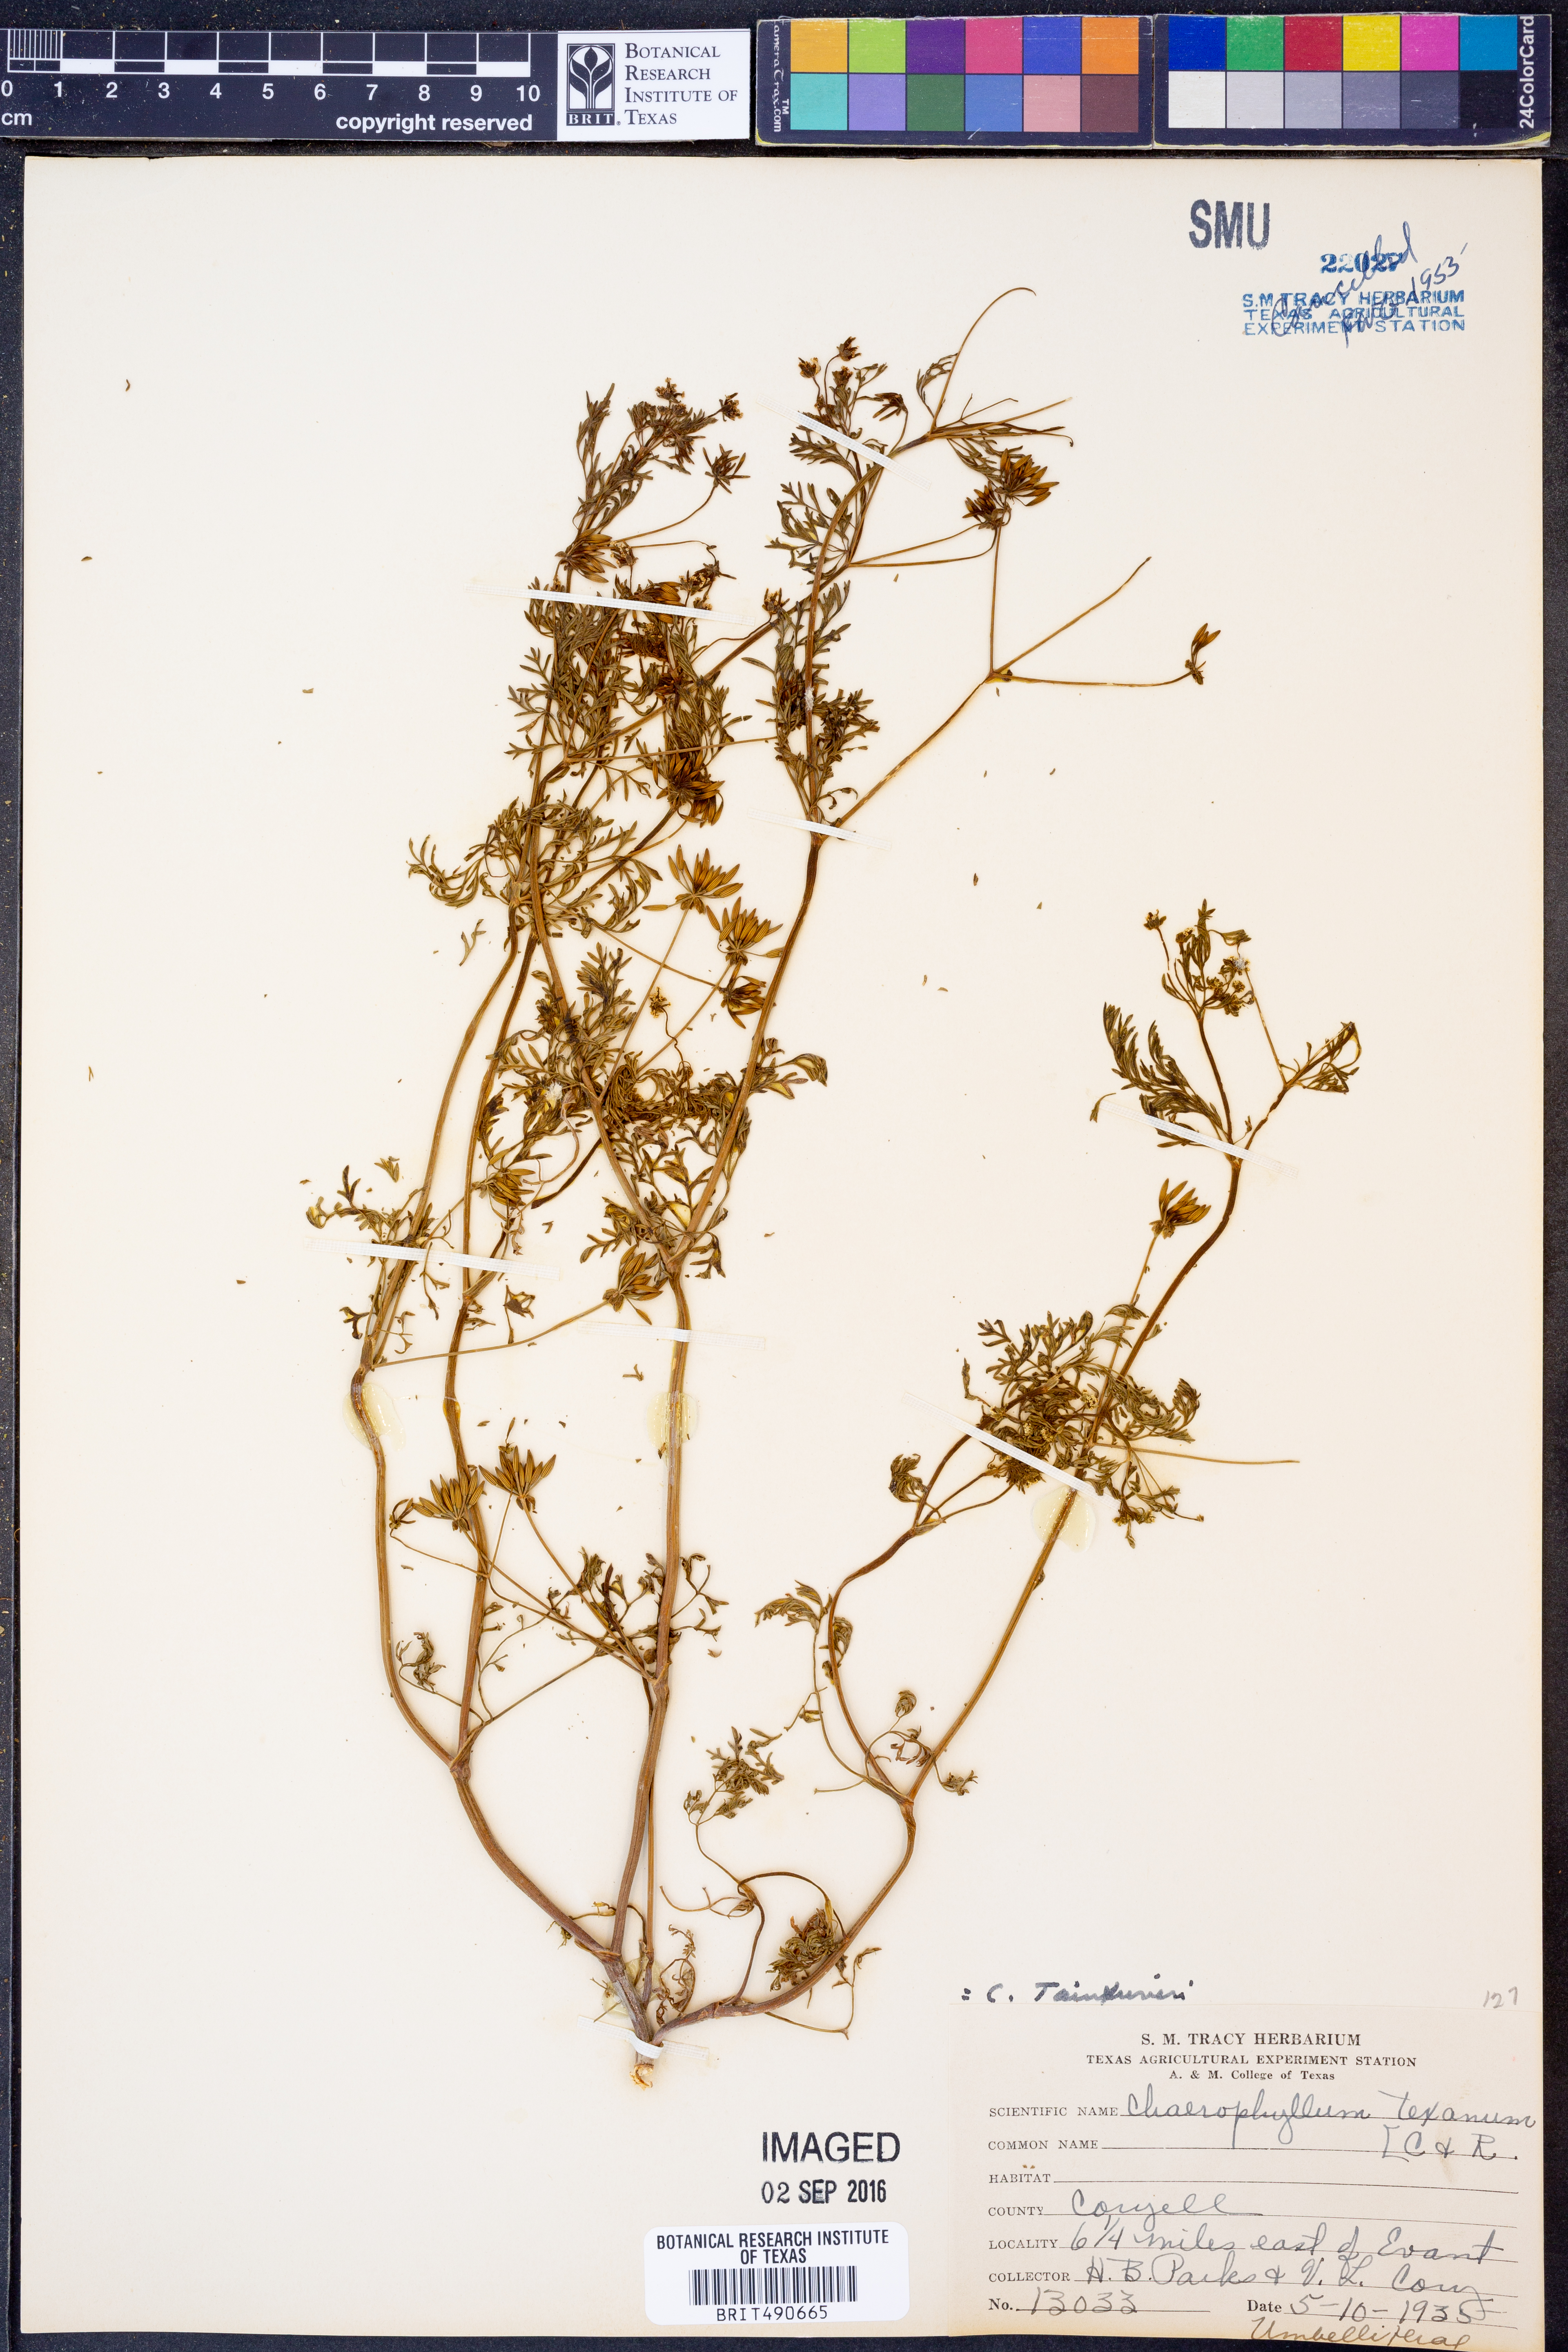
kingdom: Plantae
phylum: Tracheophyta
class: Magnoliopsida
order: Apiales
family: Apiaceae
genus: Chaerophyllum
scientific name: Chaerophyllum tainturieri
